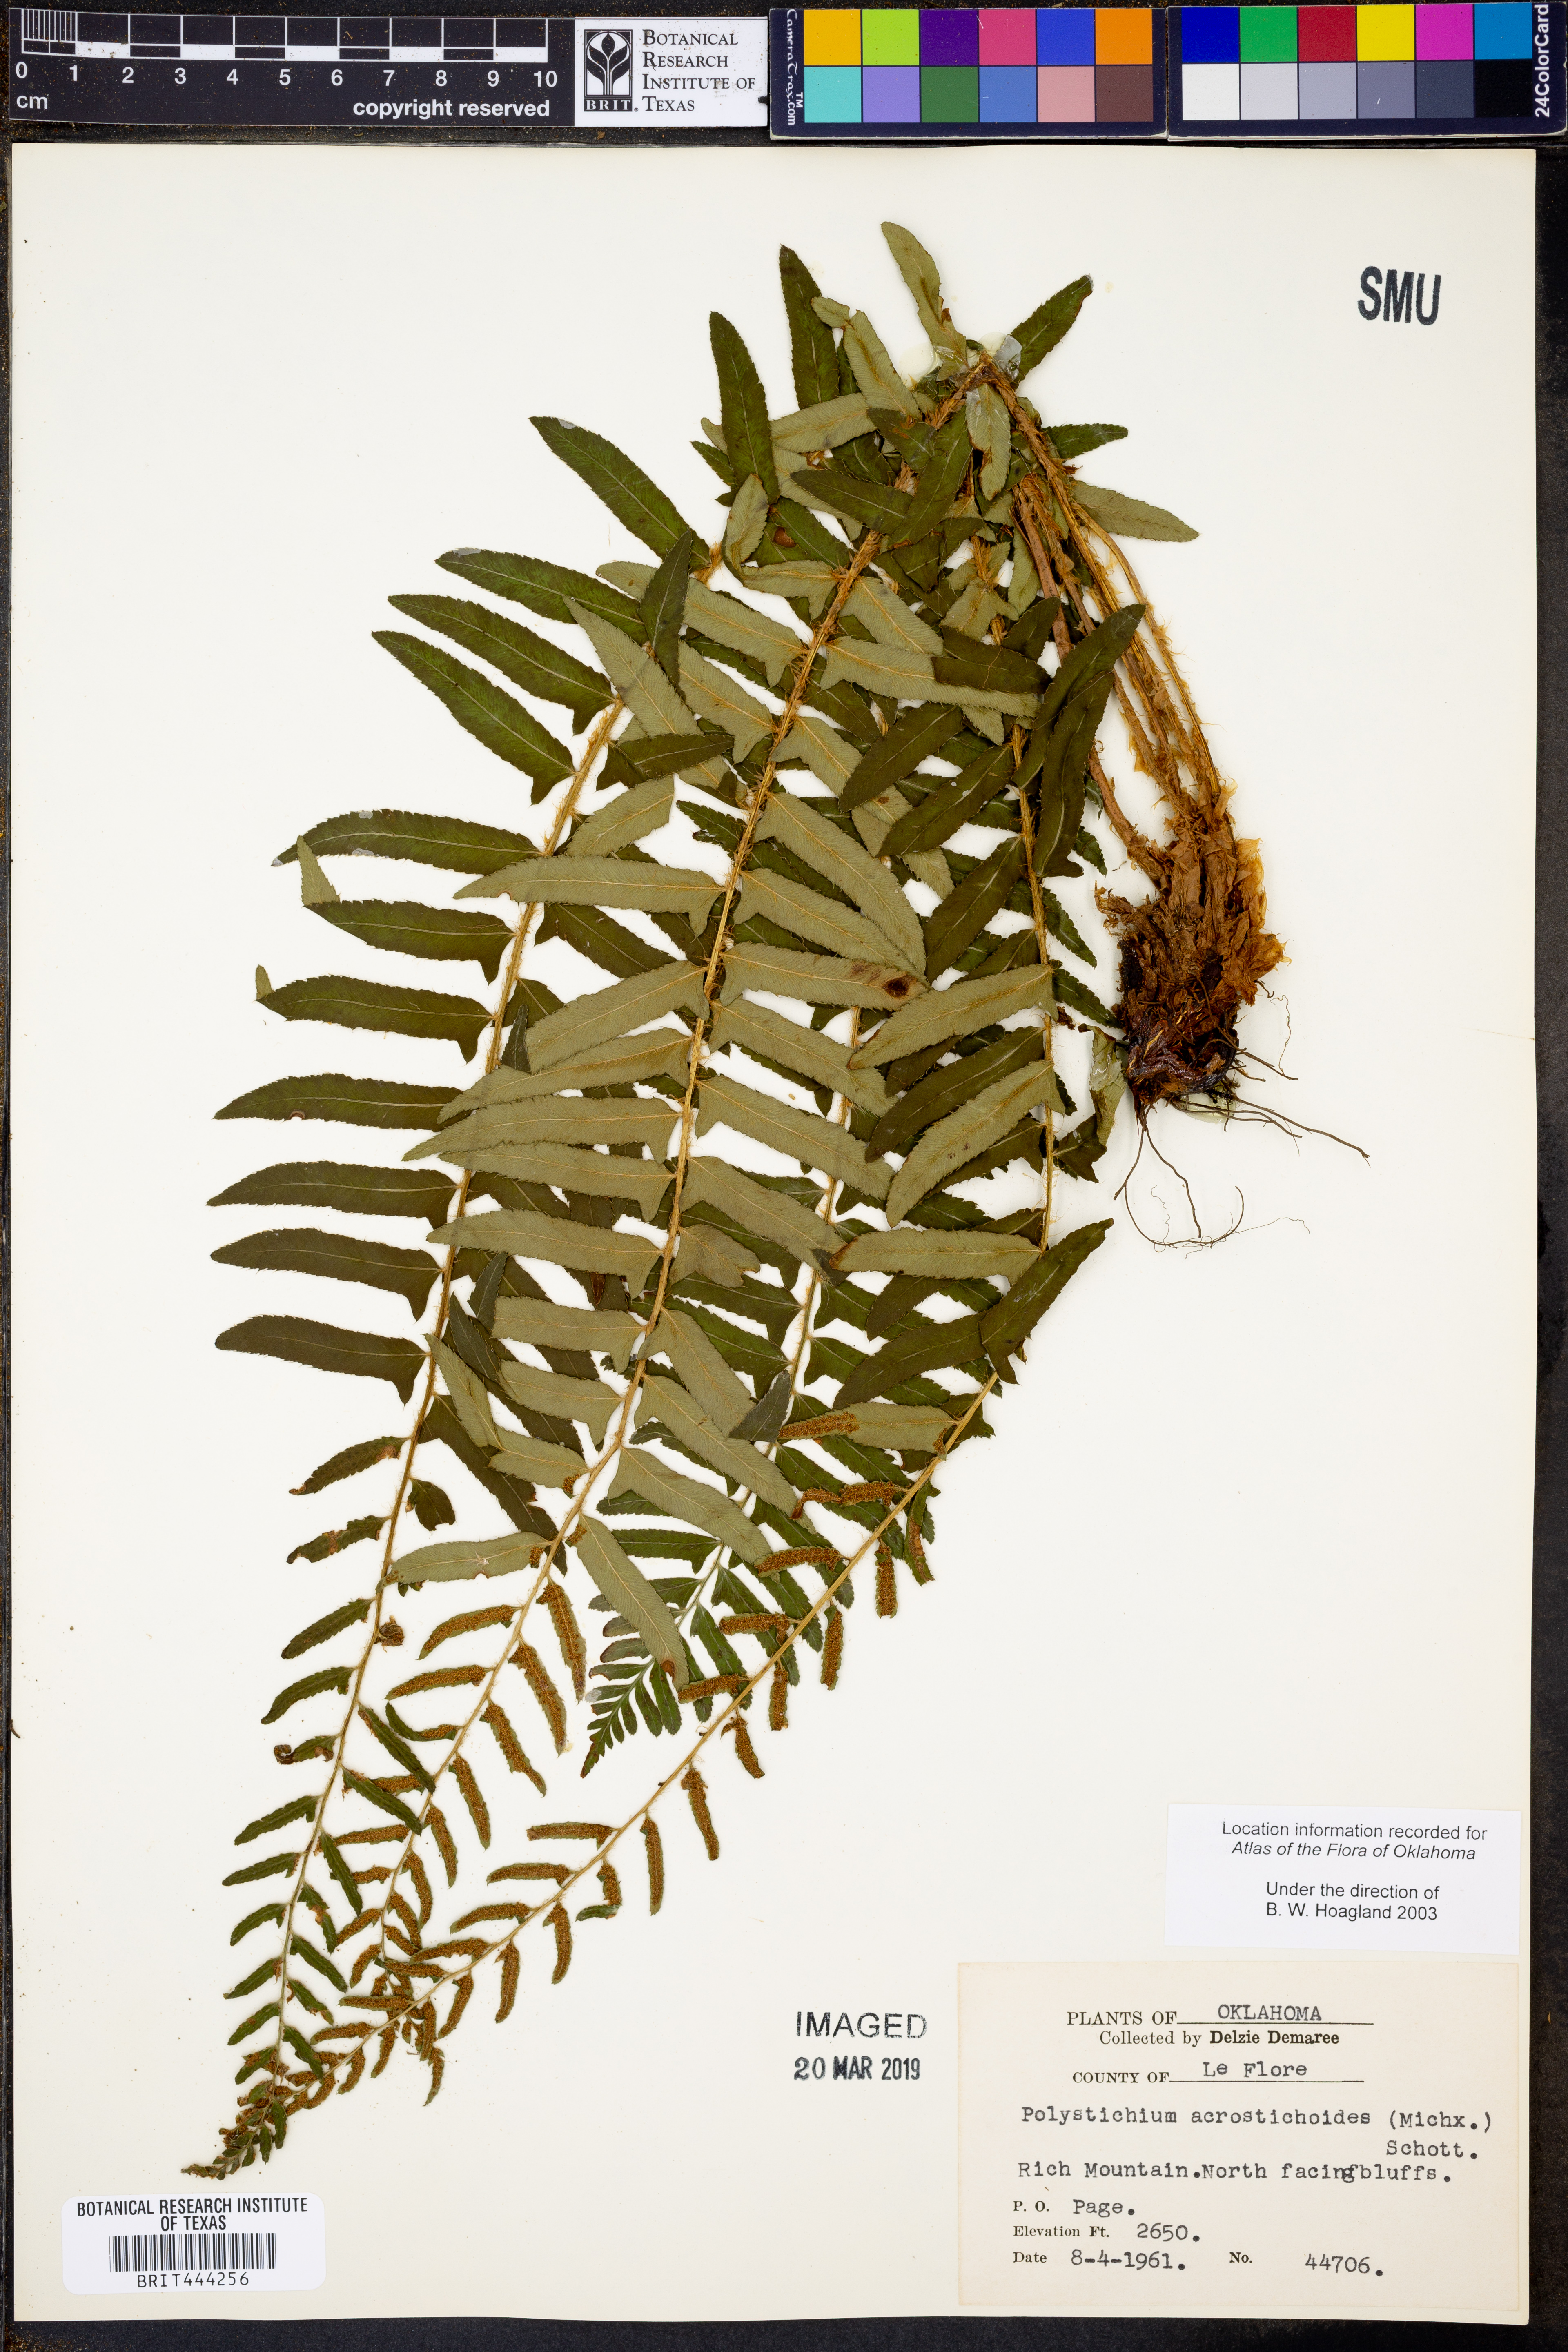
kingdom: Plantae
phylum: Tracheophyta
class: Polypodiopsida
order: Polypodiales
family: Dryopteridaceae
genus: Polystichum
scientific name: Polystichum acrostichoides
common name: Christmas fern
